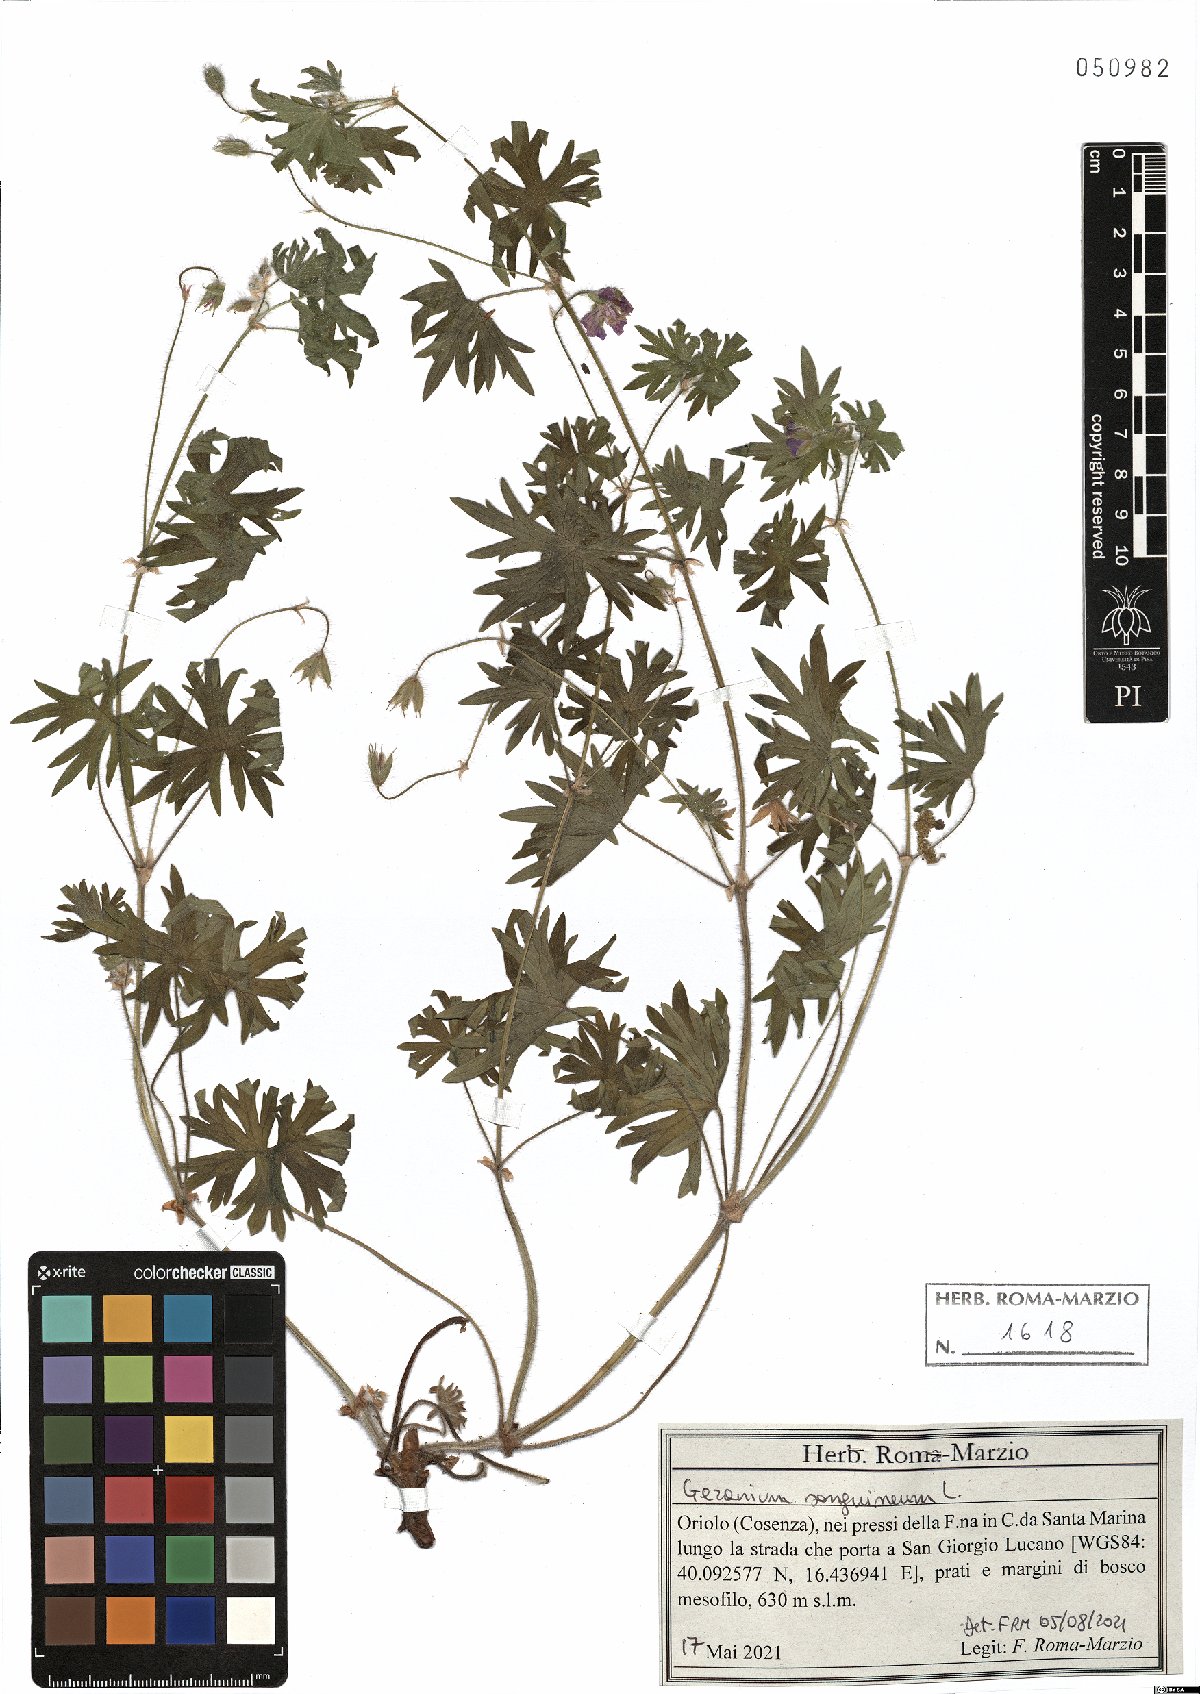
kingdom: Plantae
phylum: Tracheophyta
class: Magnoliopsida
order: Geraniales
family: Geraniaceae
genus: Geranium
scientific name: Geranium sanguineum
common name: Bloody crane's-bill
